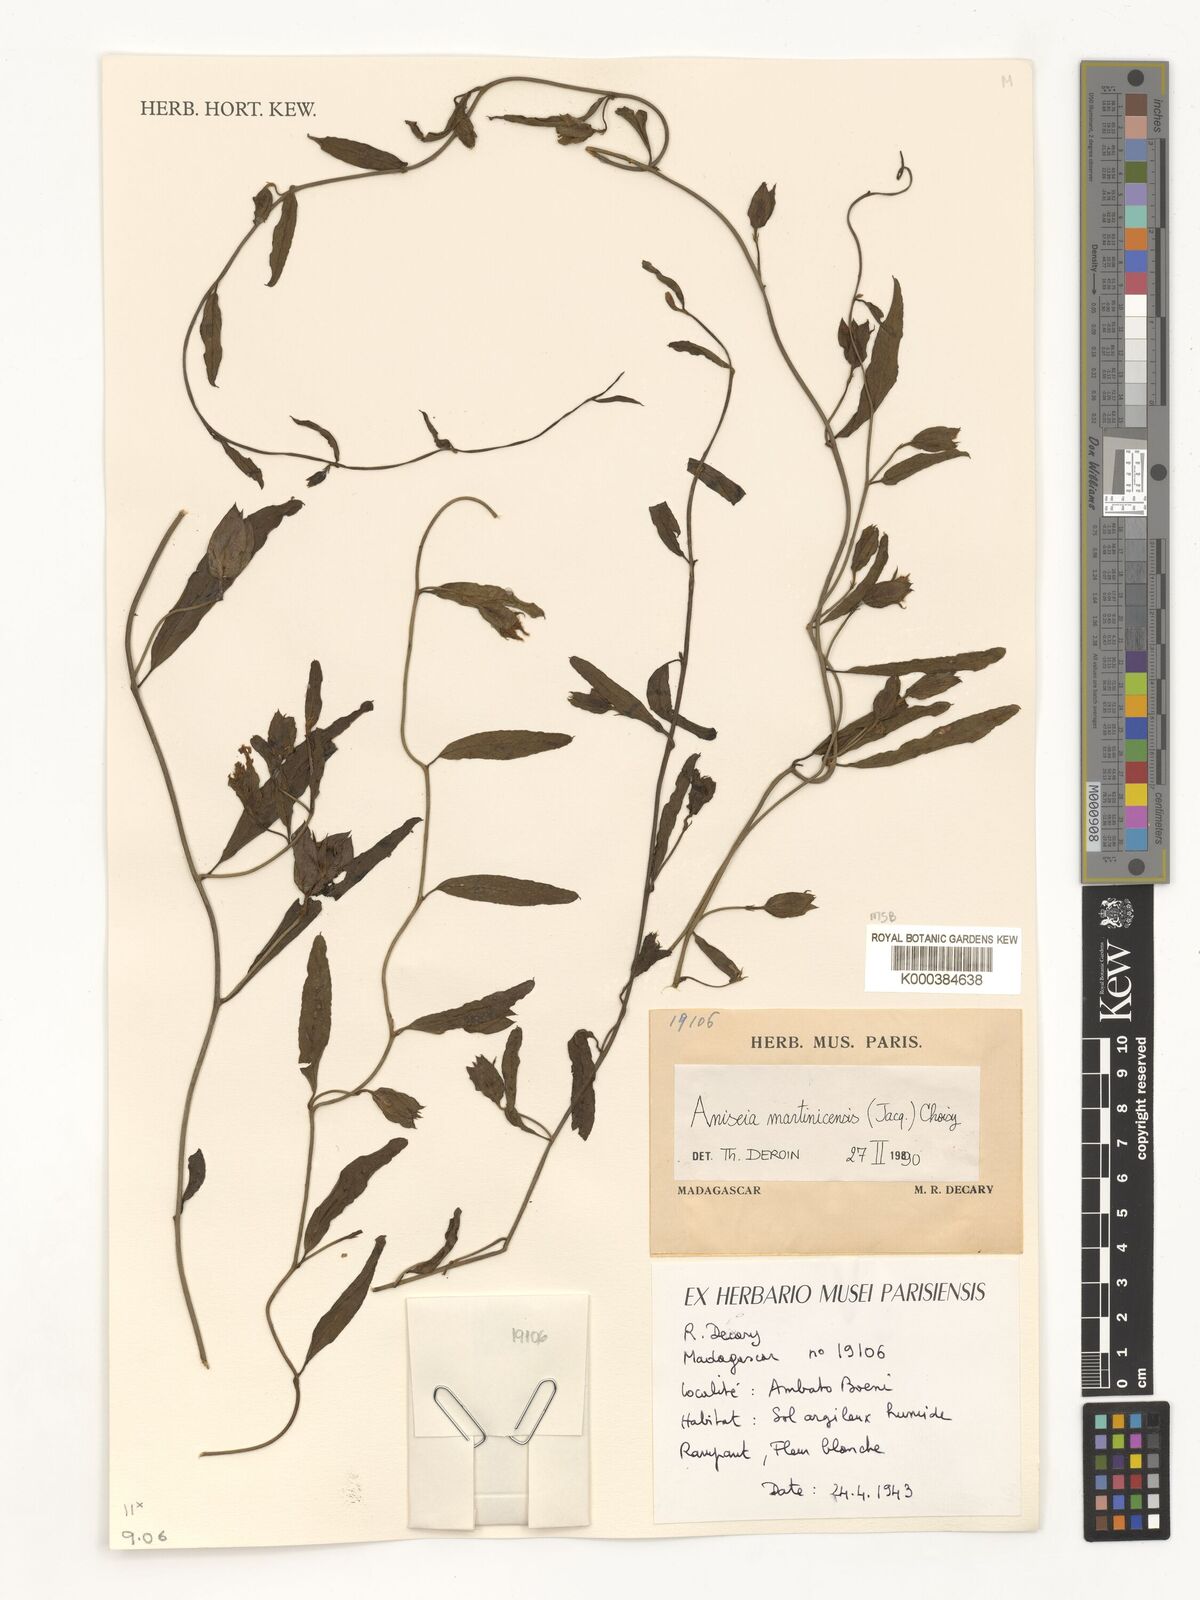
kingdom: Plantae
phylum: Tracheophyta
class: Magnoliopsida
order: Solanales
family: Convolvulaceae
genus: Aniseia
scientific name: Aniseia martinicensis
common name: Kulayadambu
